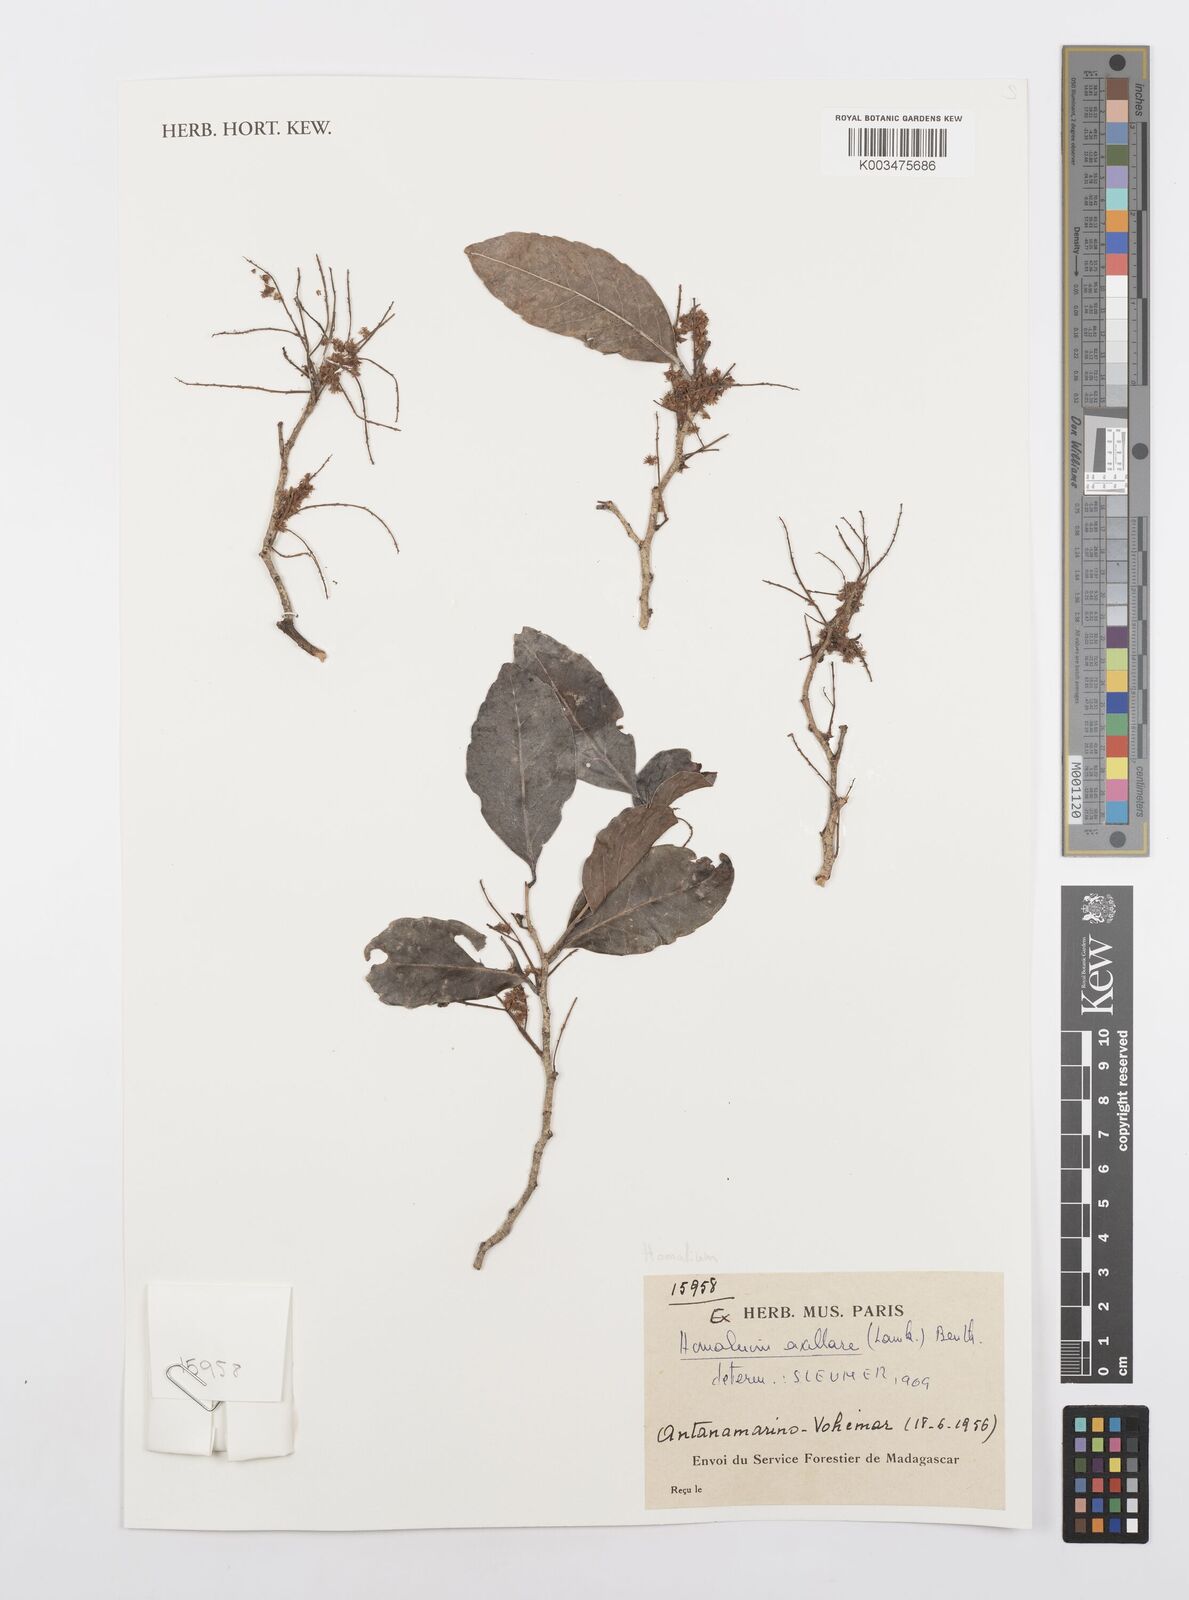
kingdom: Plantae
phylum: Tracheophyta
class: Magnoliopsida
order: Malpighiales
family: Salicaceae
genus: Homalium
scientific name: Homalium axillare
